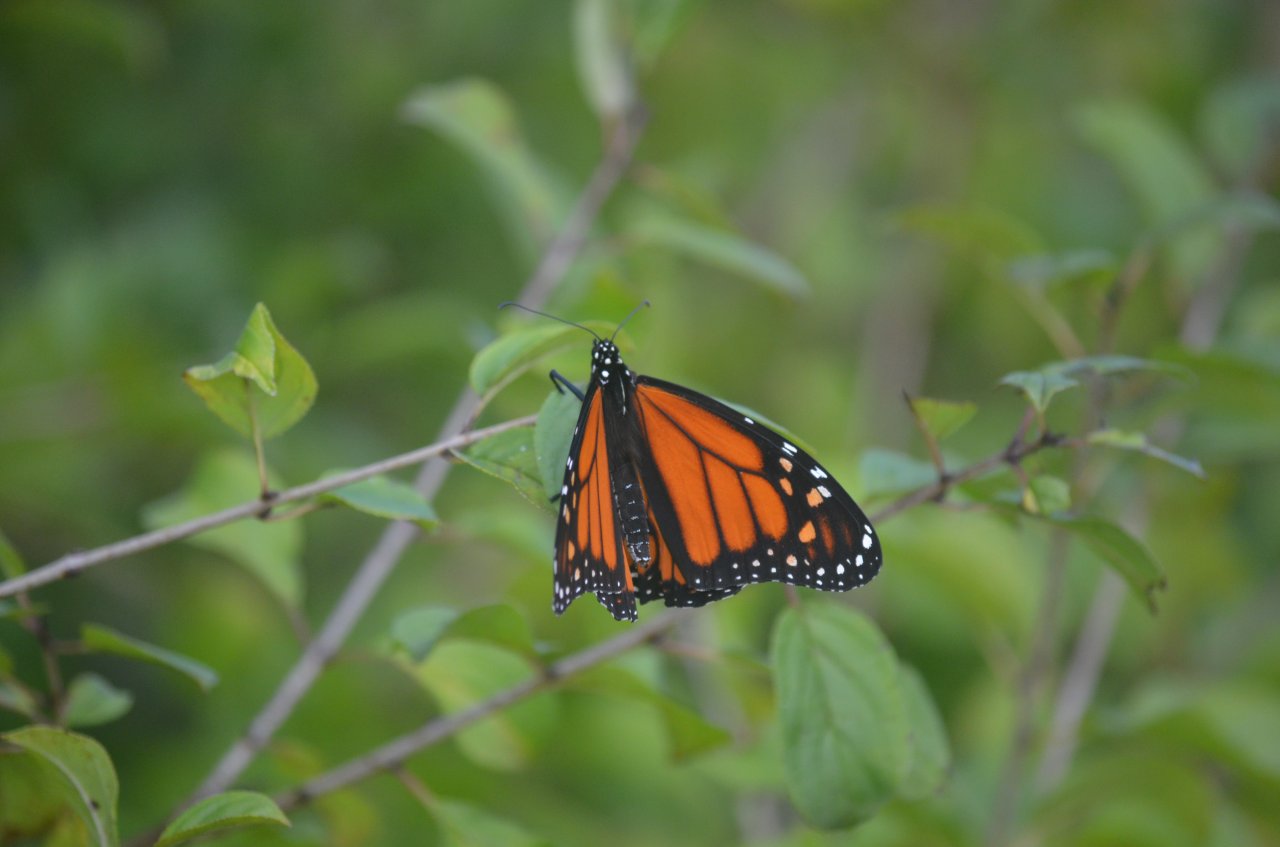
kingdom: Animalia
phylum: Arthropoda
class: Insecta
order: Lepidoptera
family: Nymphalidae
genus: Danaus
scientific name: Danaus plexippus
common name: Monarch
